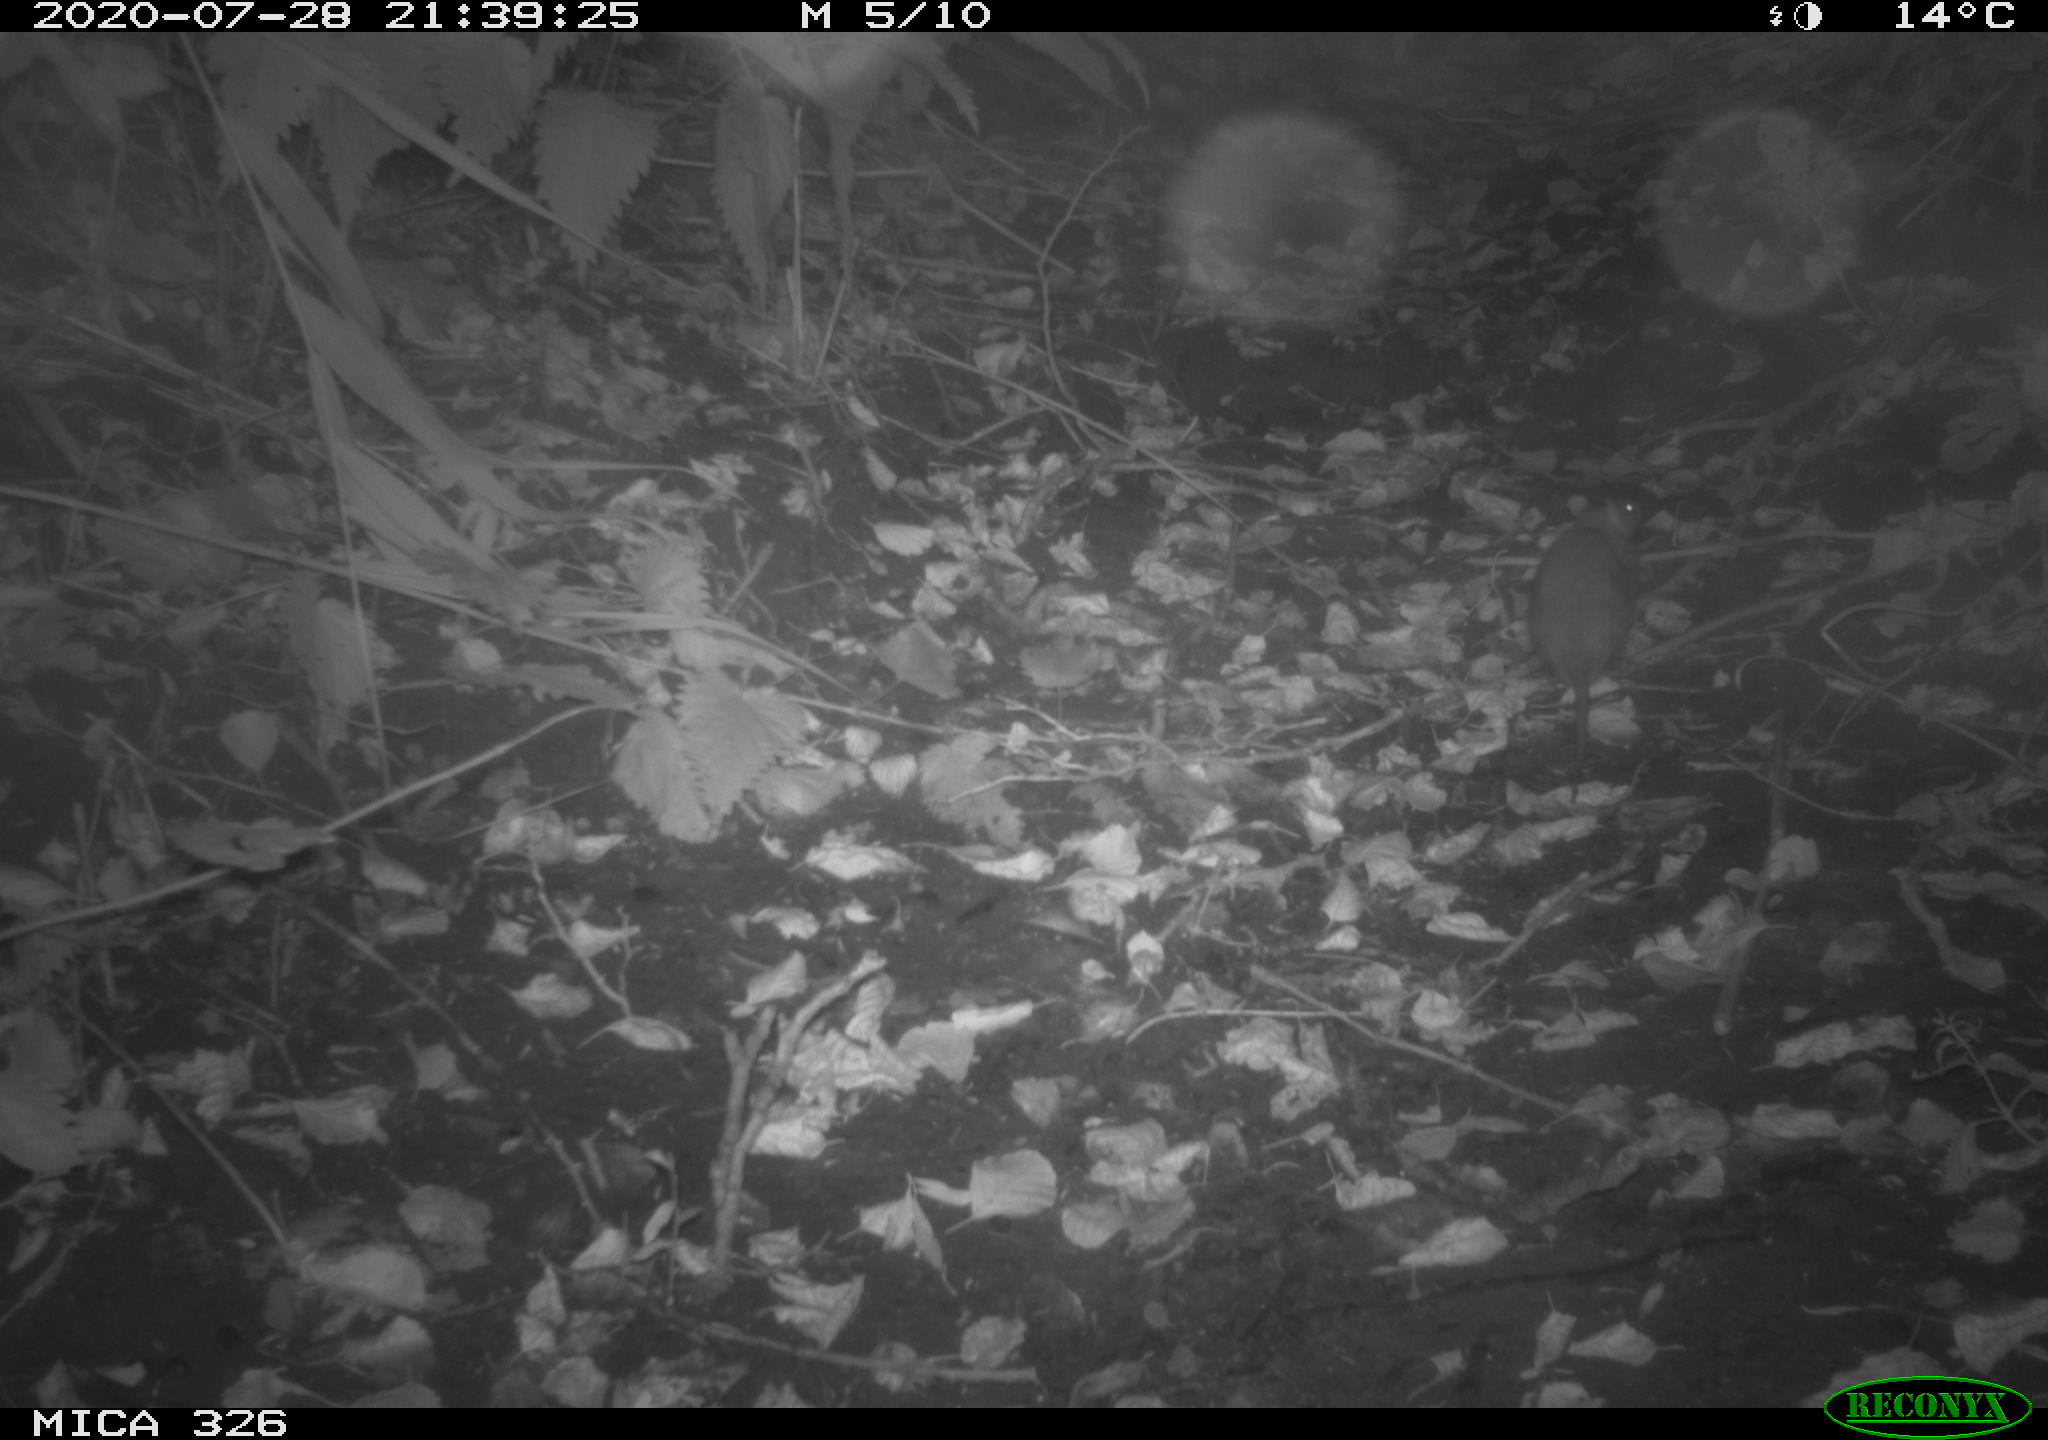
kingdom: Animalia
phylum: Chordata
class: Mammalia
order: Rodentia
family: Muridae
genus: Rattus
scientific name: Rattus norvegicus
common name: Brown rat
